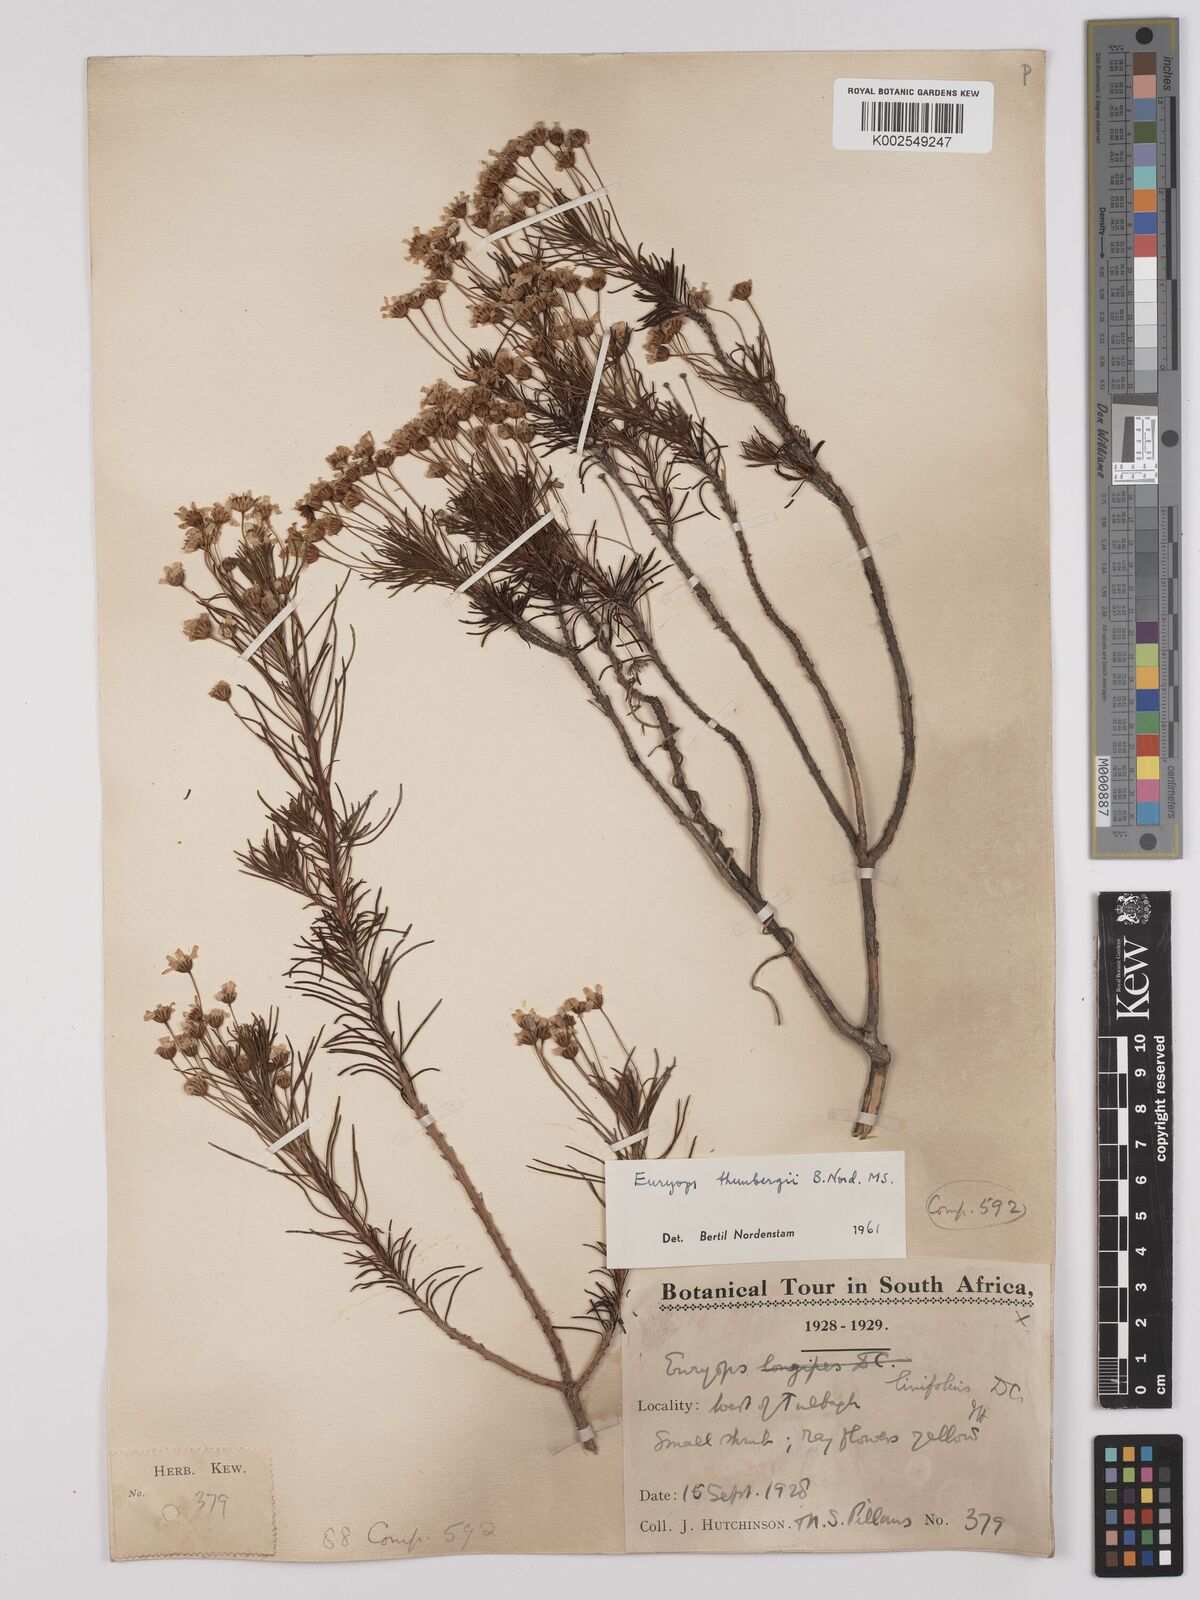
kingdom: Plantae
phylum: Tracheophyta
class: Magnoliopsida
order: Asterales
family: Asteraceae
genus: Euryops
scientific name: Euryops thunbergii
